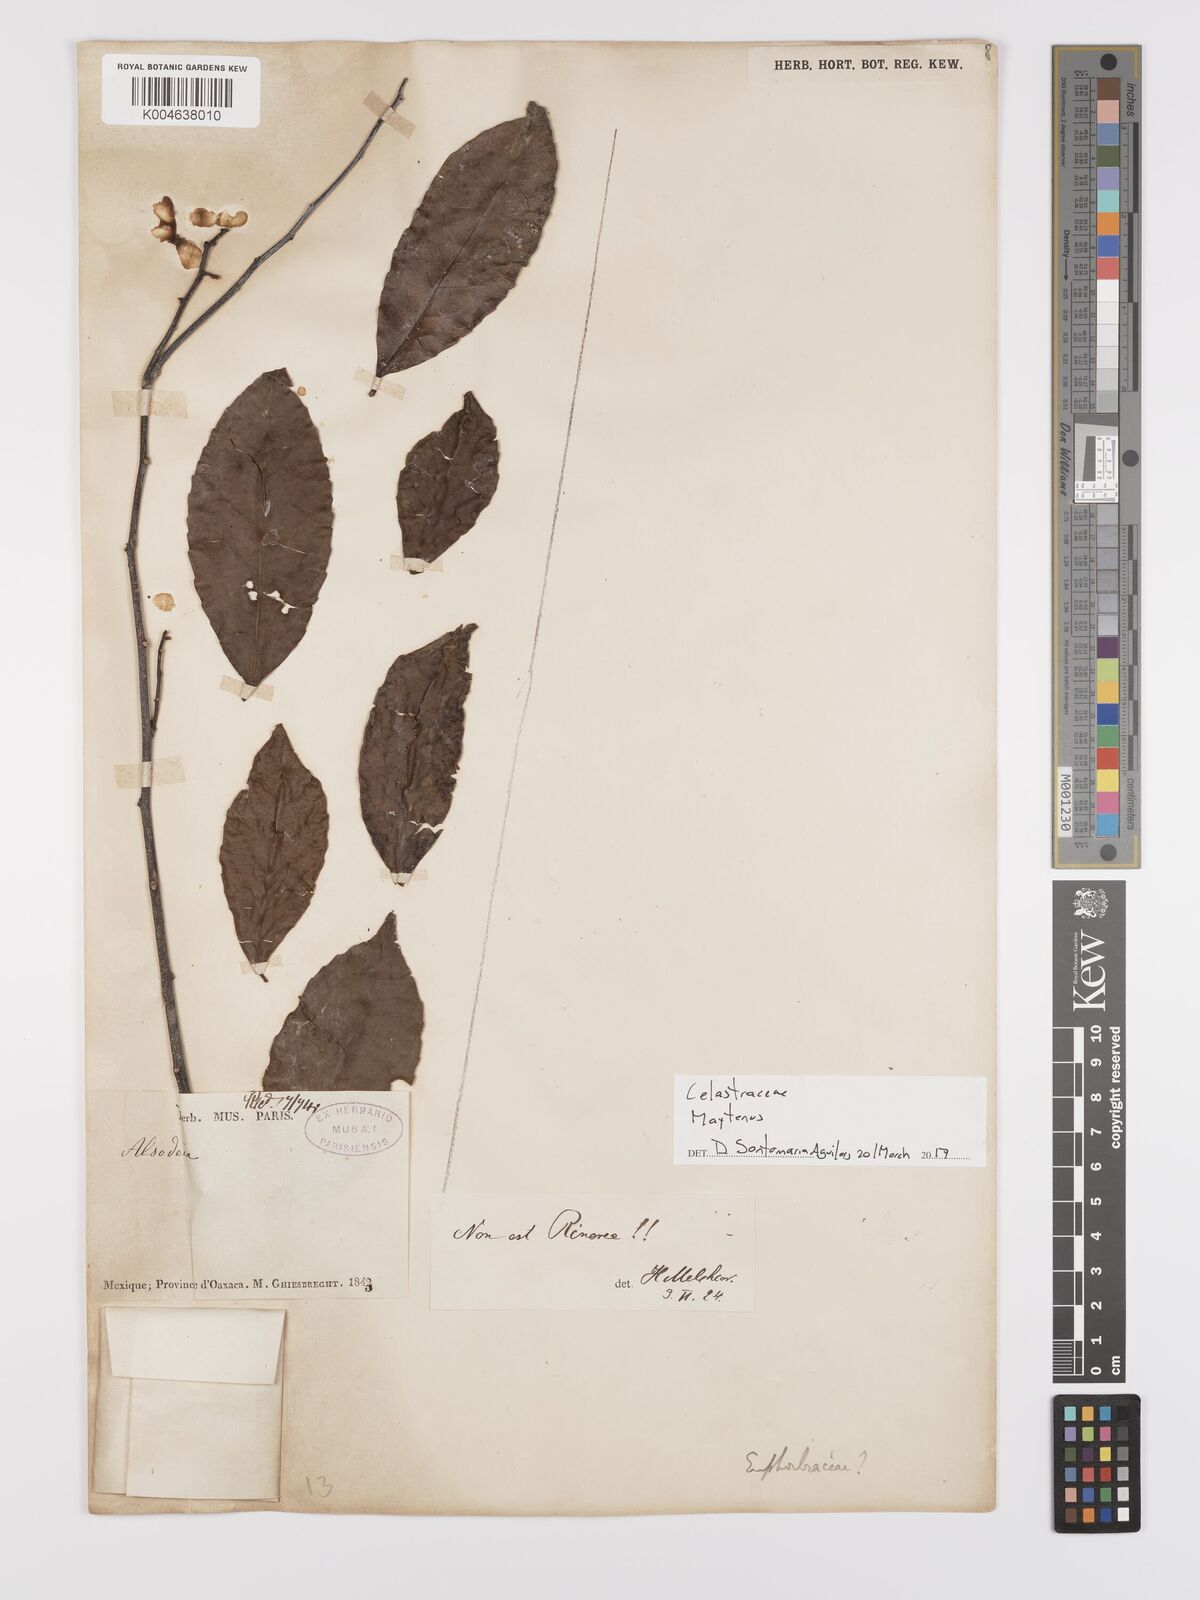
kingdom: Plantae
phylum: Tracheophyta
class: Magnoliopsida
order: Celastrales
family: Celastraceae
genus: Maytenus
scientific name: Maytenus
